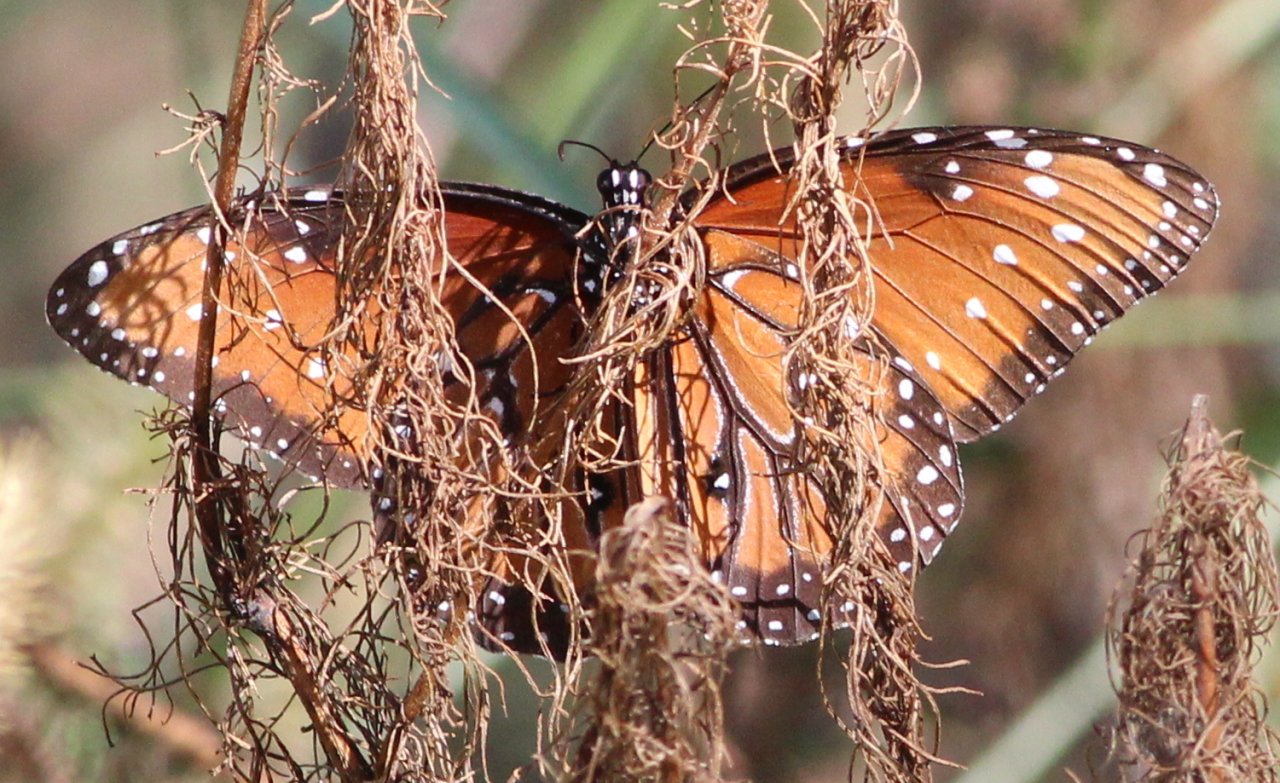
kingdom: Animalia
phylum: Arthropoda
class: Insecta
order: Lepidoptera
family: Nymphalidae
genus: Danaus
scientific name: Danaus gilippus
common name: Queen
